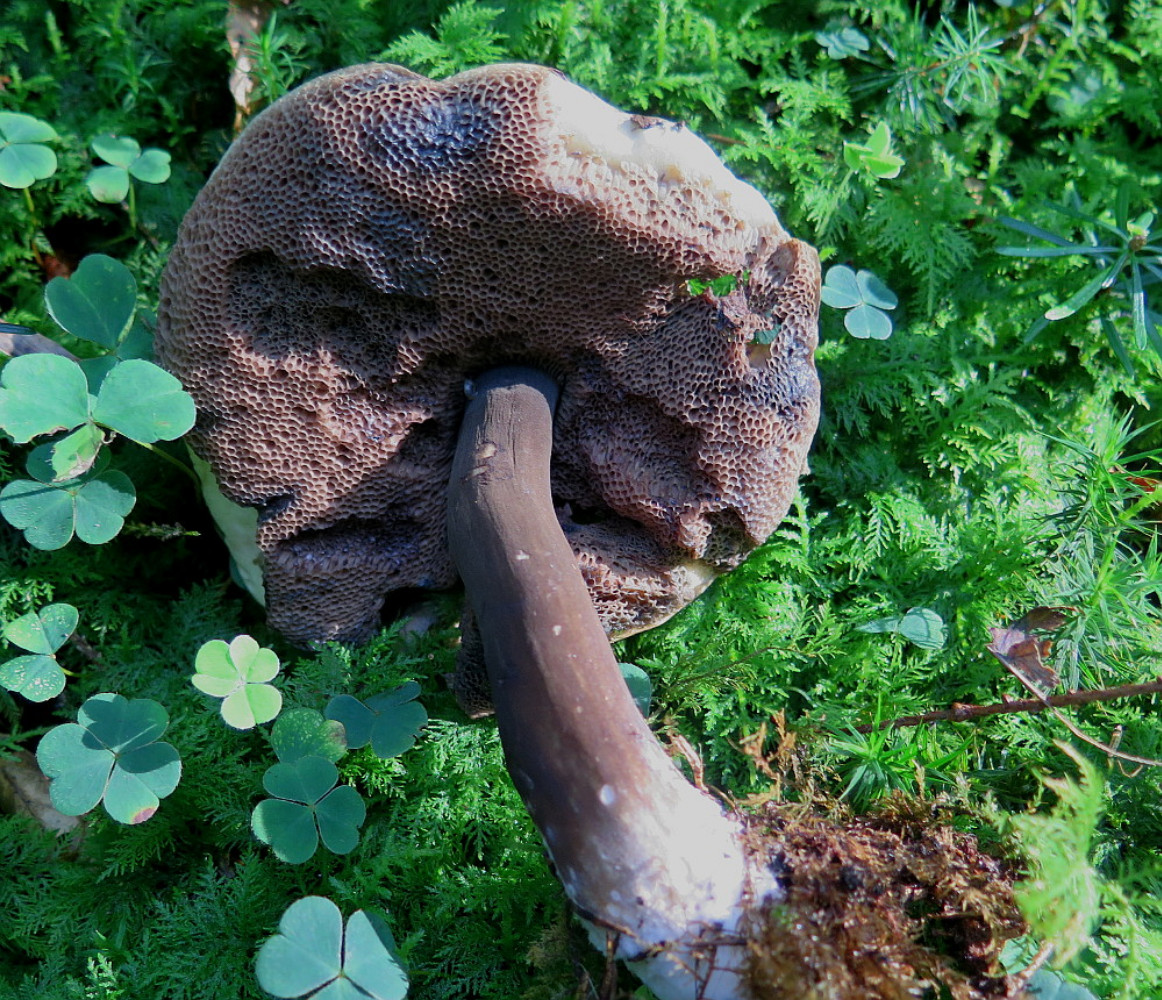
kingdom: Fungi
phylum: Basidiomycota
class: Agaricomycetes
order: Boletales
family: Boletaceae
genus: Porphyrellus
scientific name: Porphyrellus porphyrosporus
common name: sodrørhat
